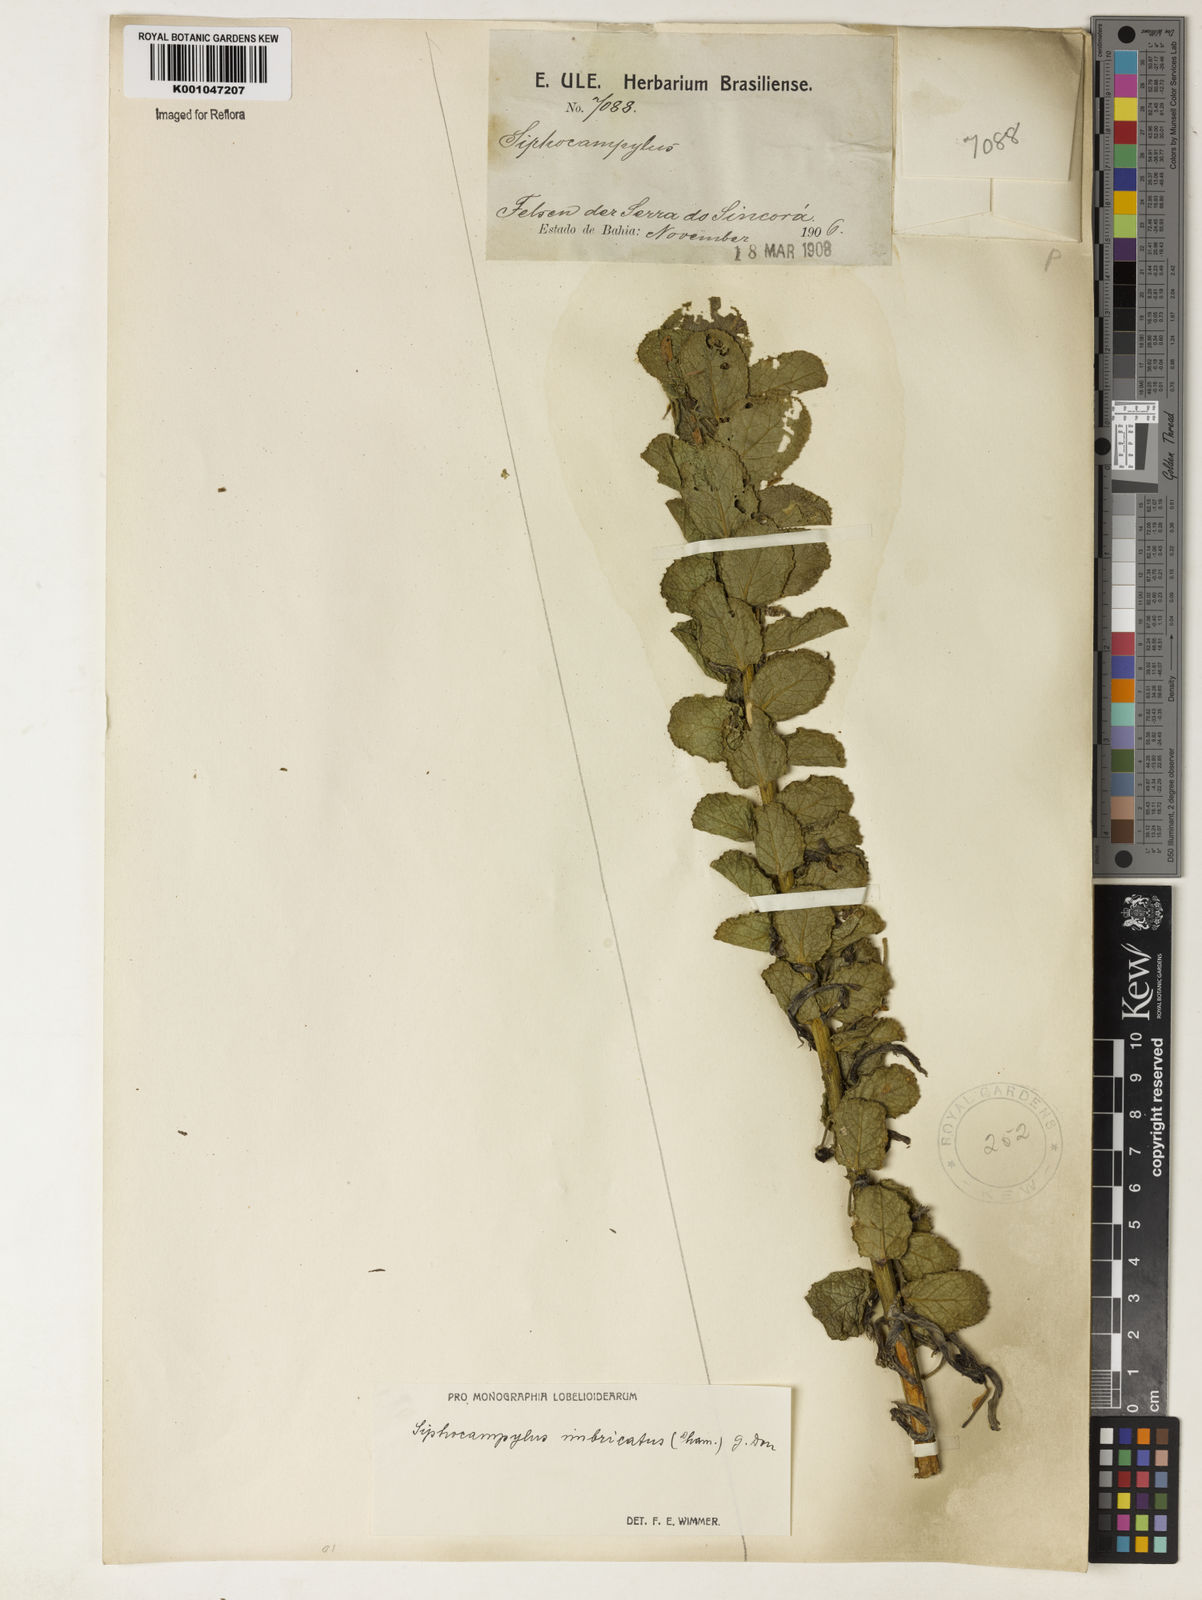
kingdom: Plantae
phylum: Tracheophyta
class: Magnoliopsida
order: Asterales
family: Campanulaceae
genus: Siphocampylus
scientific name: Siphocampylus imbricatus
